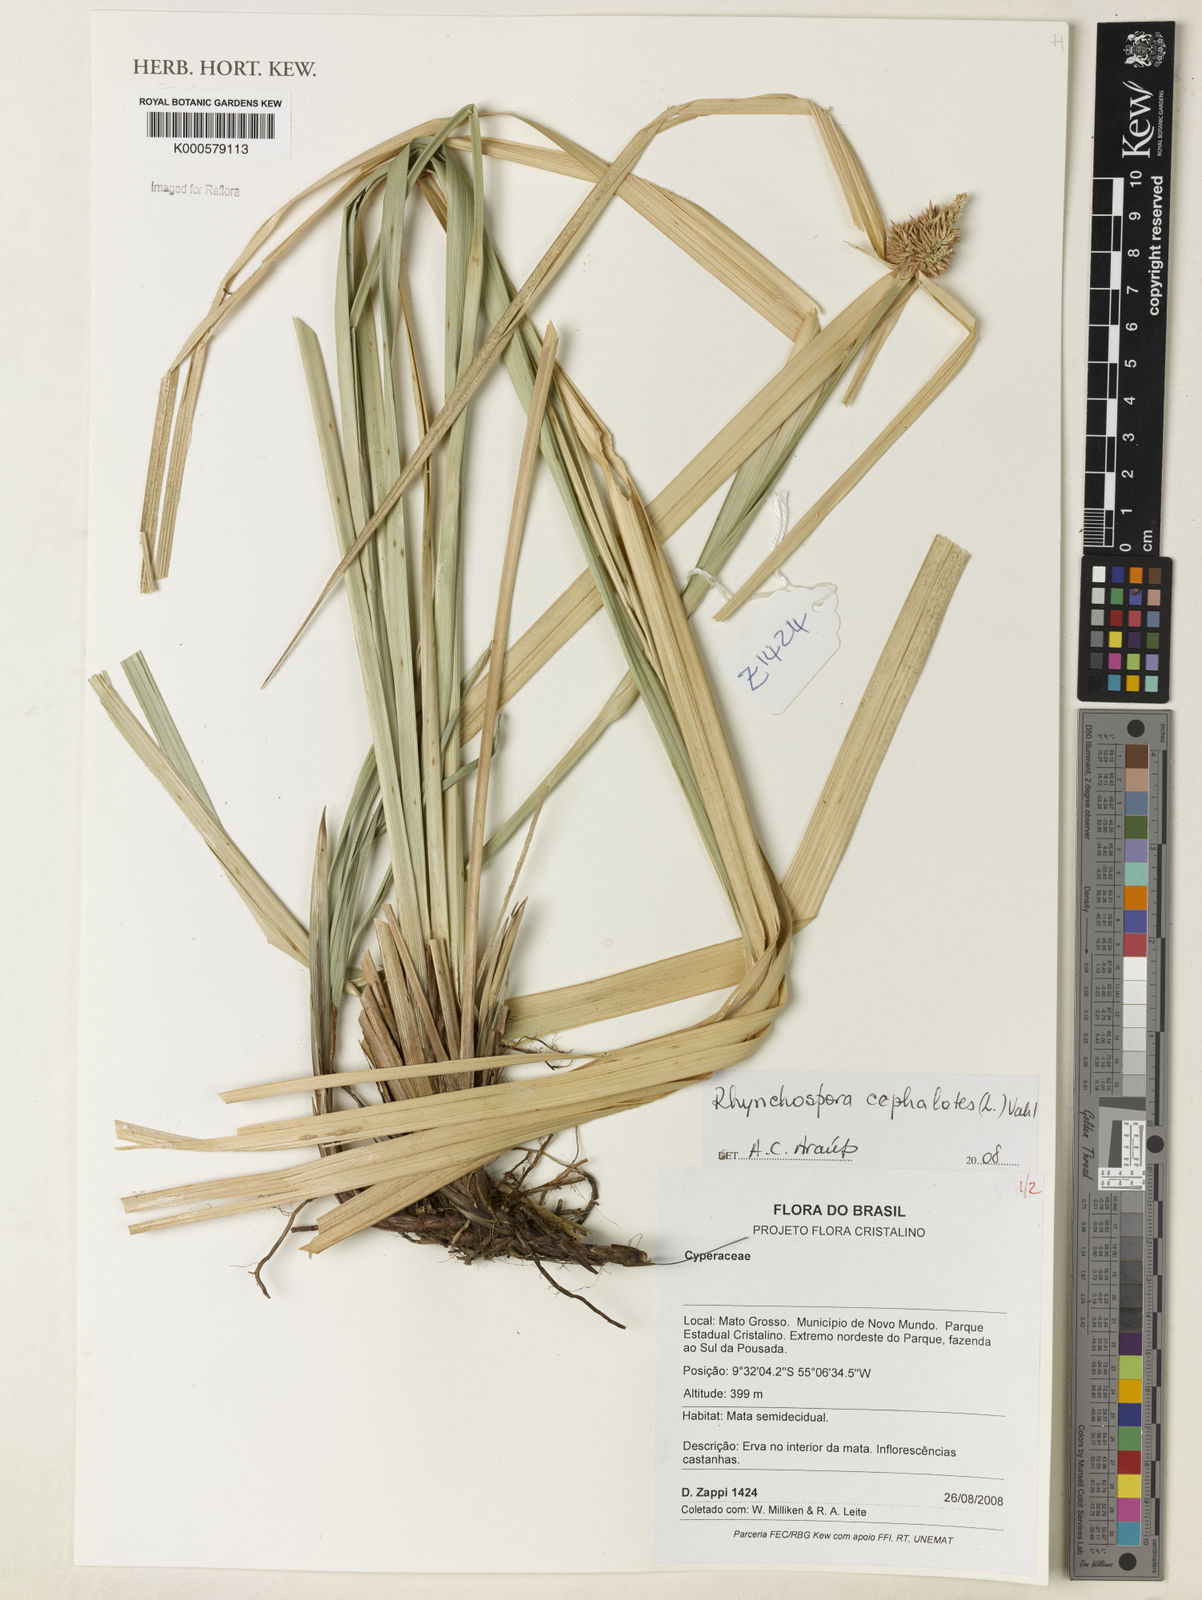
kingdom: Plantae
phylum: Tracheophyta
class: Liliopsida
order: Poales
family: Cyperaceae
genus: Rhynchospora
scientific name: Rhynchospora cephalotes
